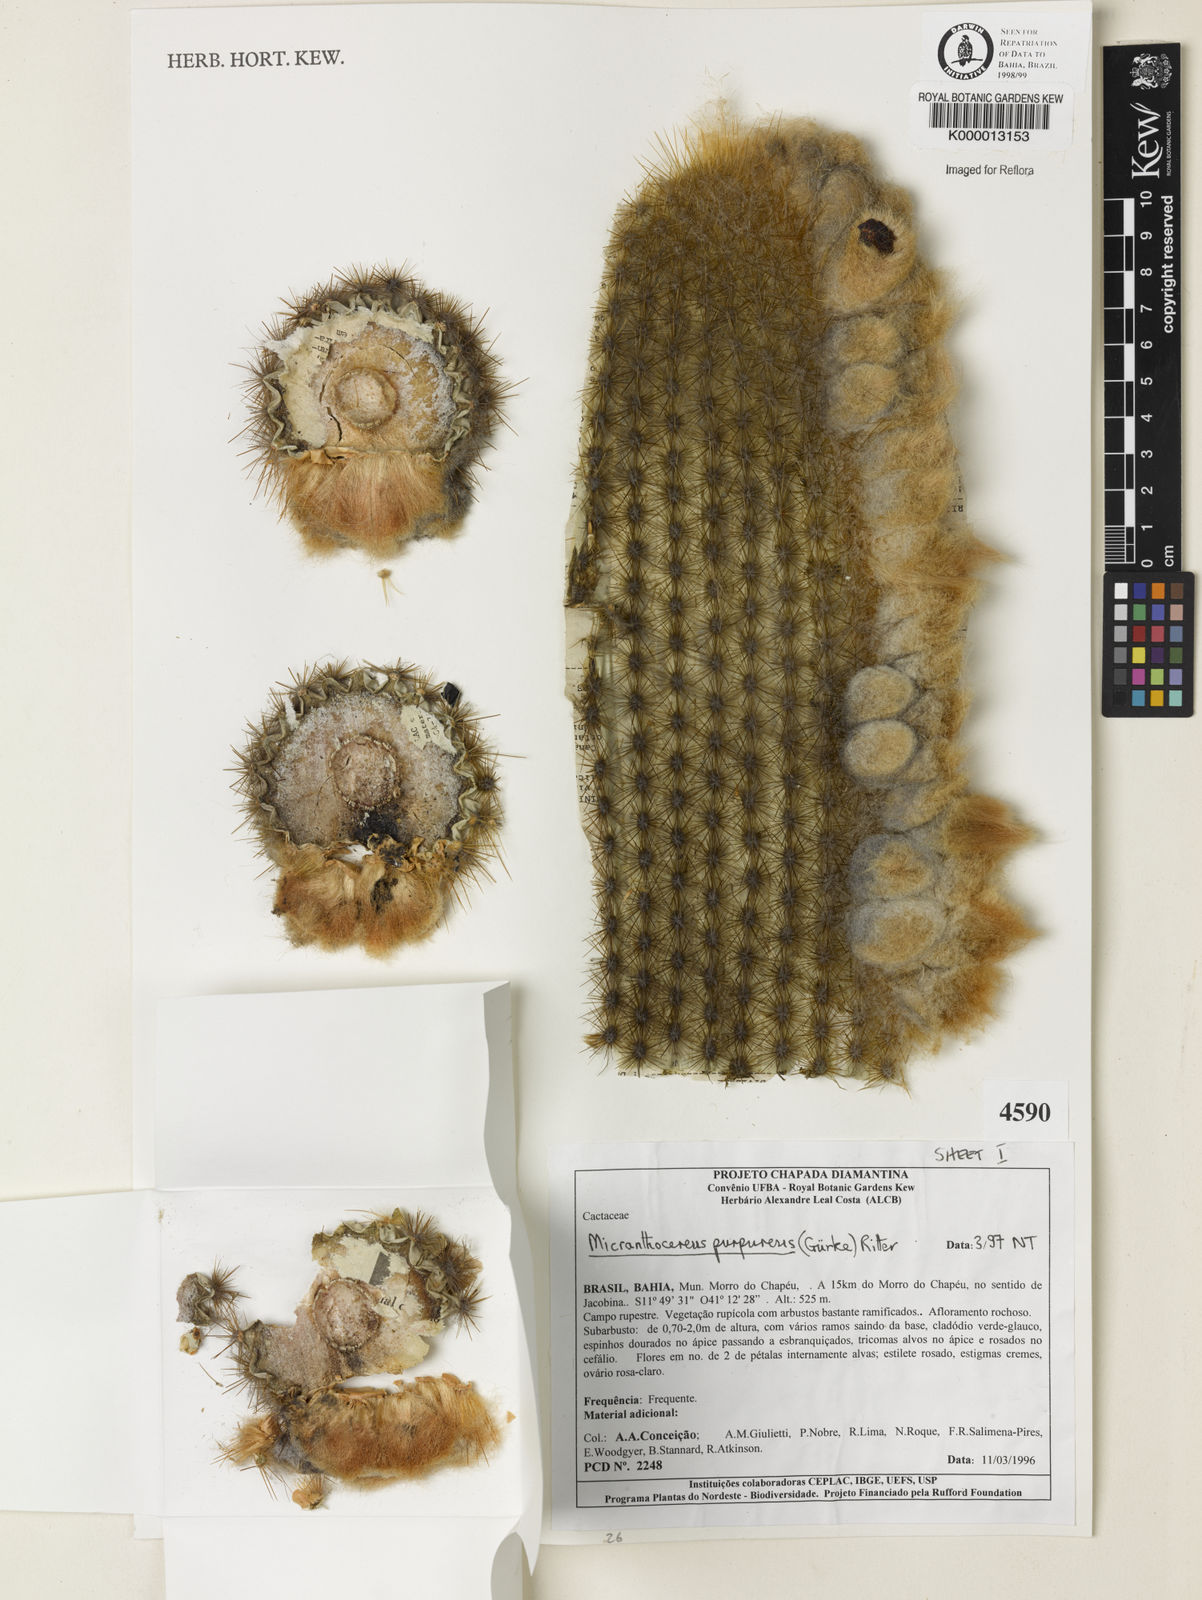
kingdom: Plantae
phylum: Tracheophyta
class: Magnoliopsida
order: Caryophyllales
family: Cactaceae
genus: Micranthocereus
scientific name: Micranthocereus purpureus
